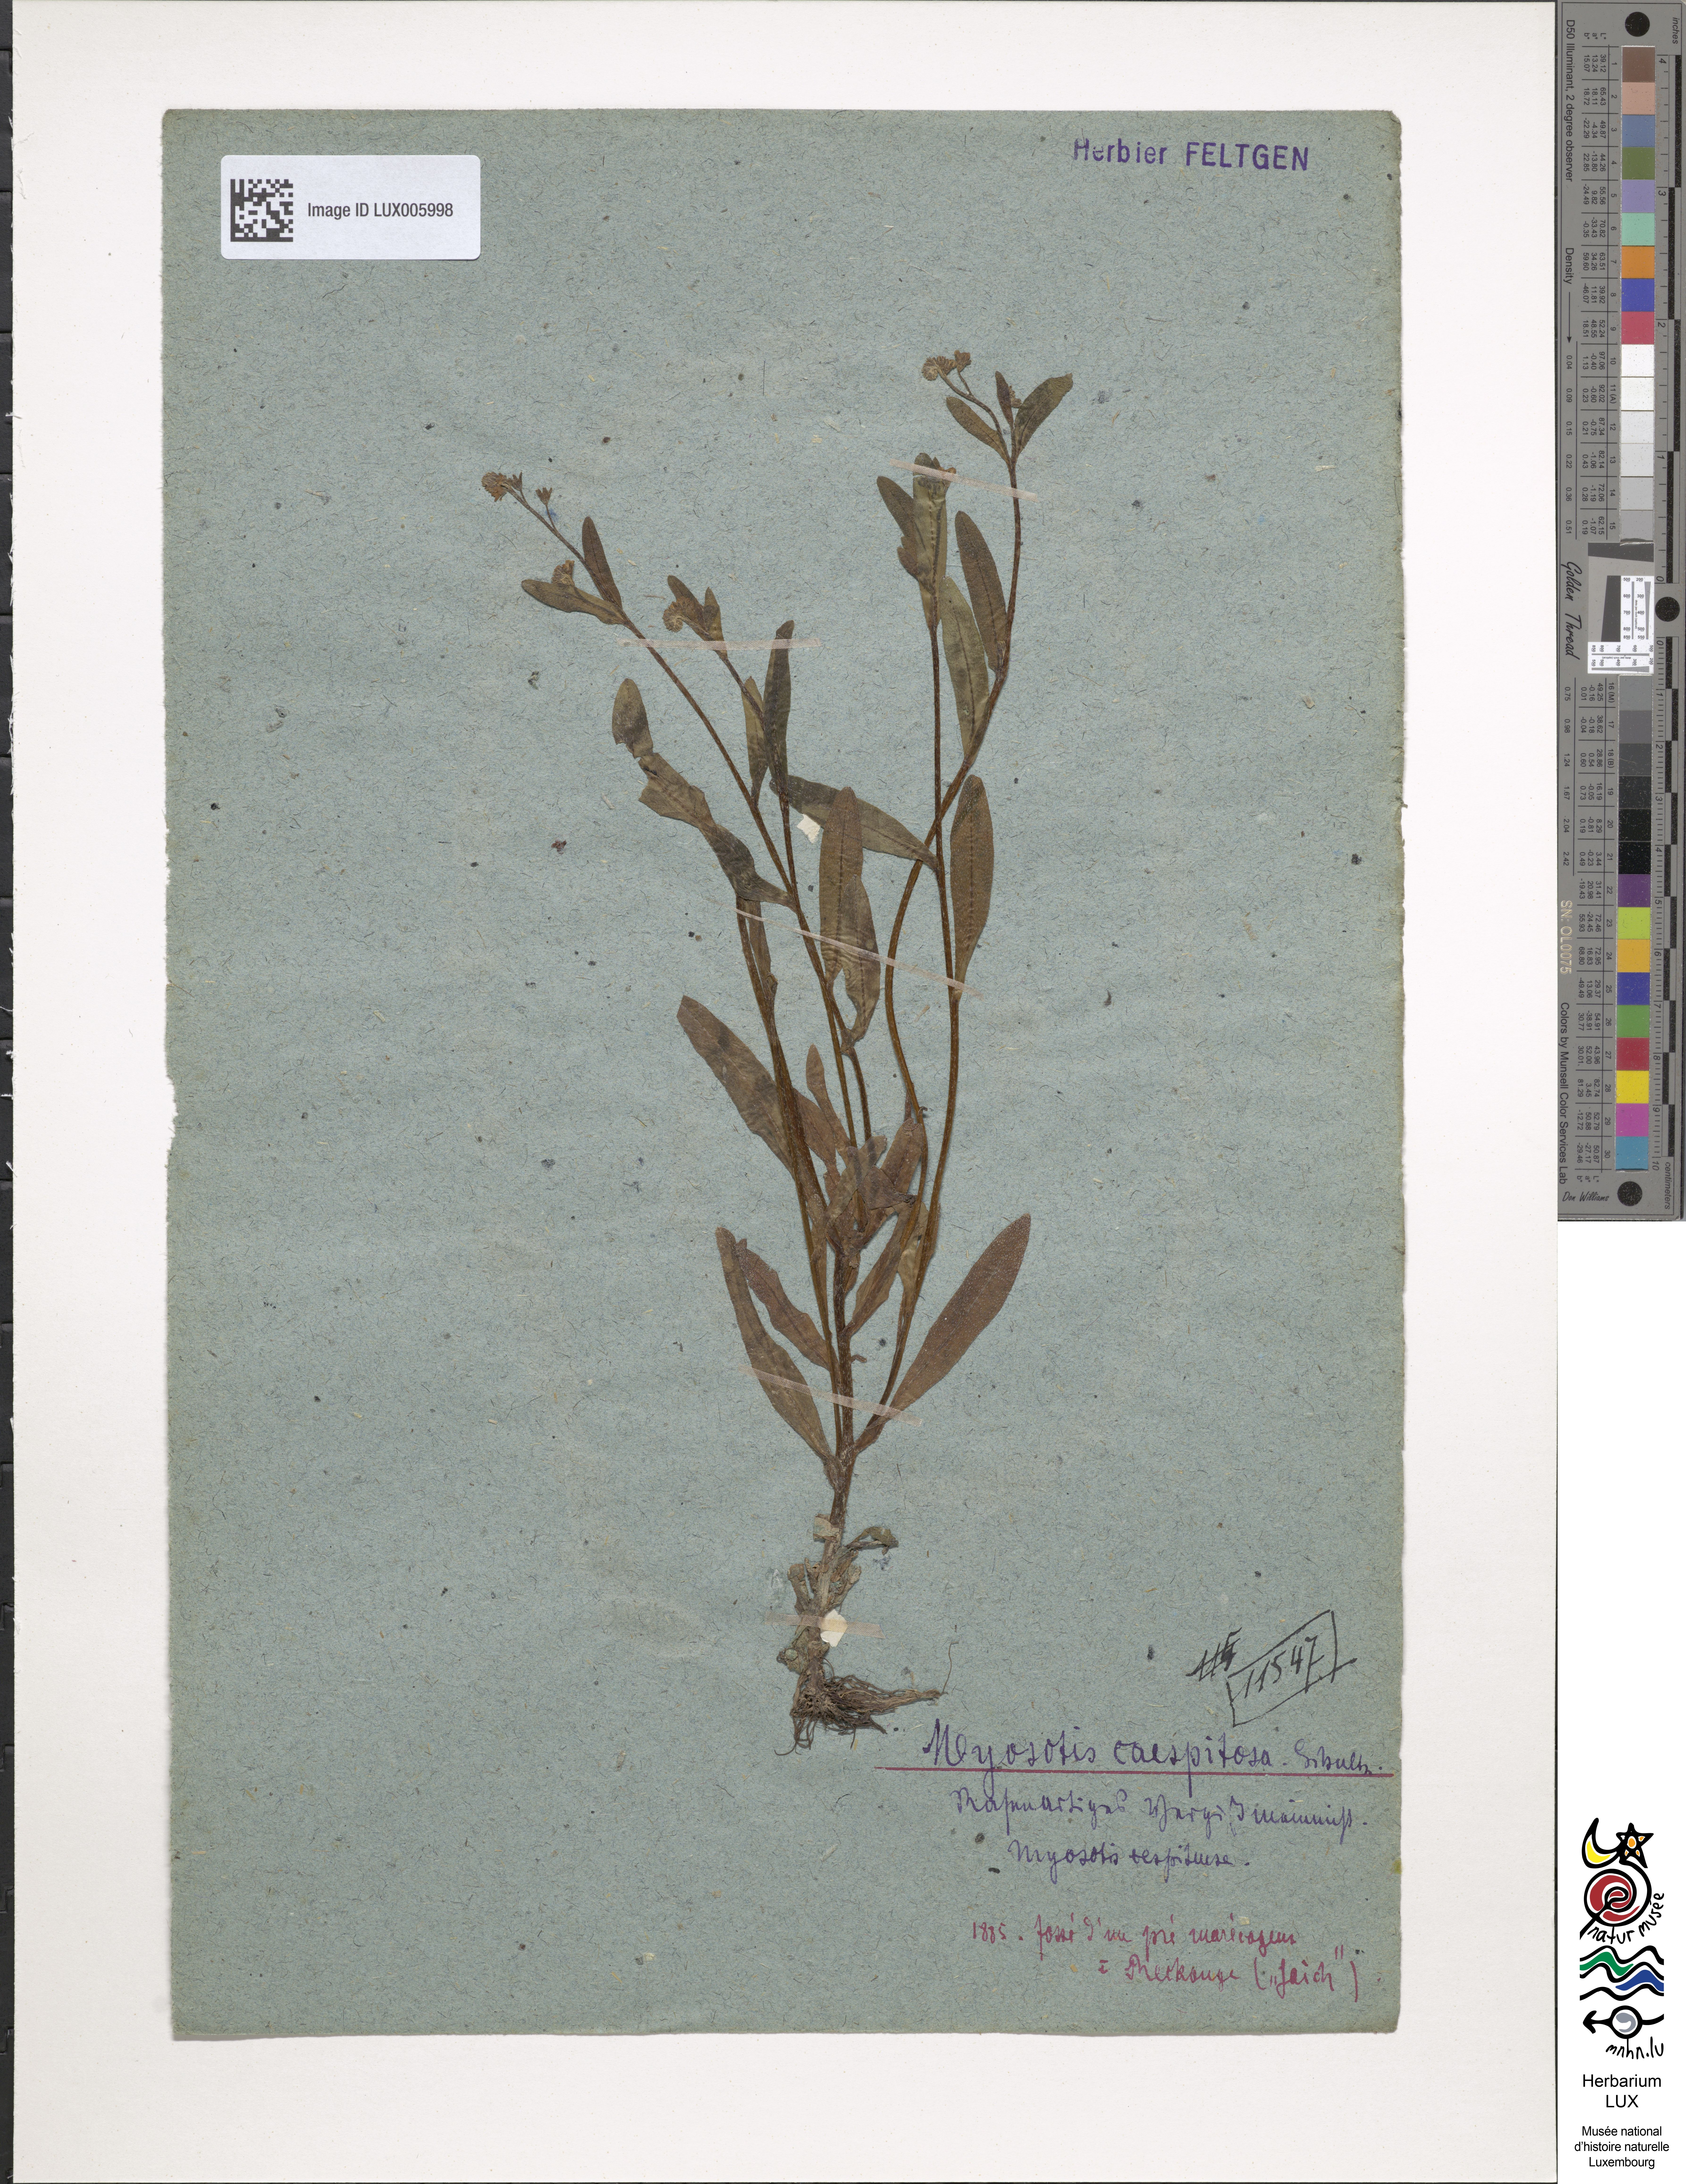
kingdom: Plantae
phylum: Tracheophyta
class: Magnoliopsida
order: Boraginales
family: Boraginaceae
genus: Myosotis
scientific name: Myosotis scorpioides
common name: Water forget-me-not
